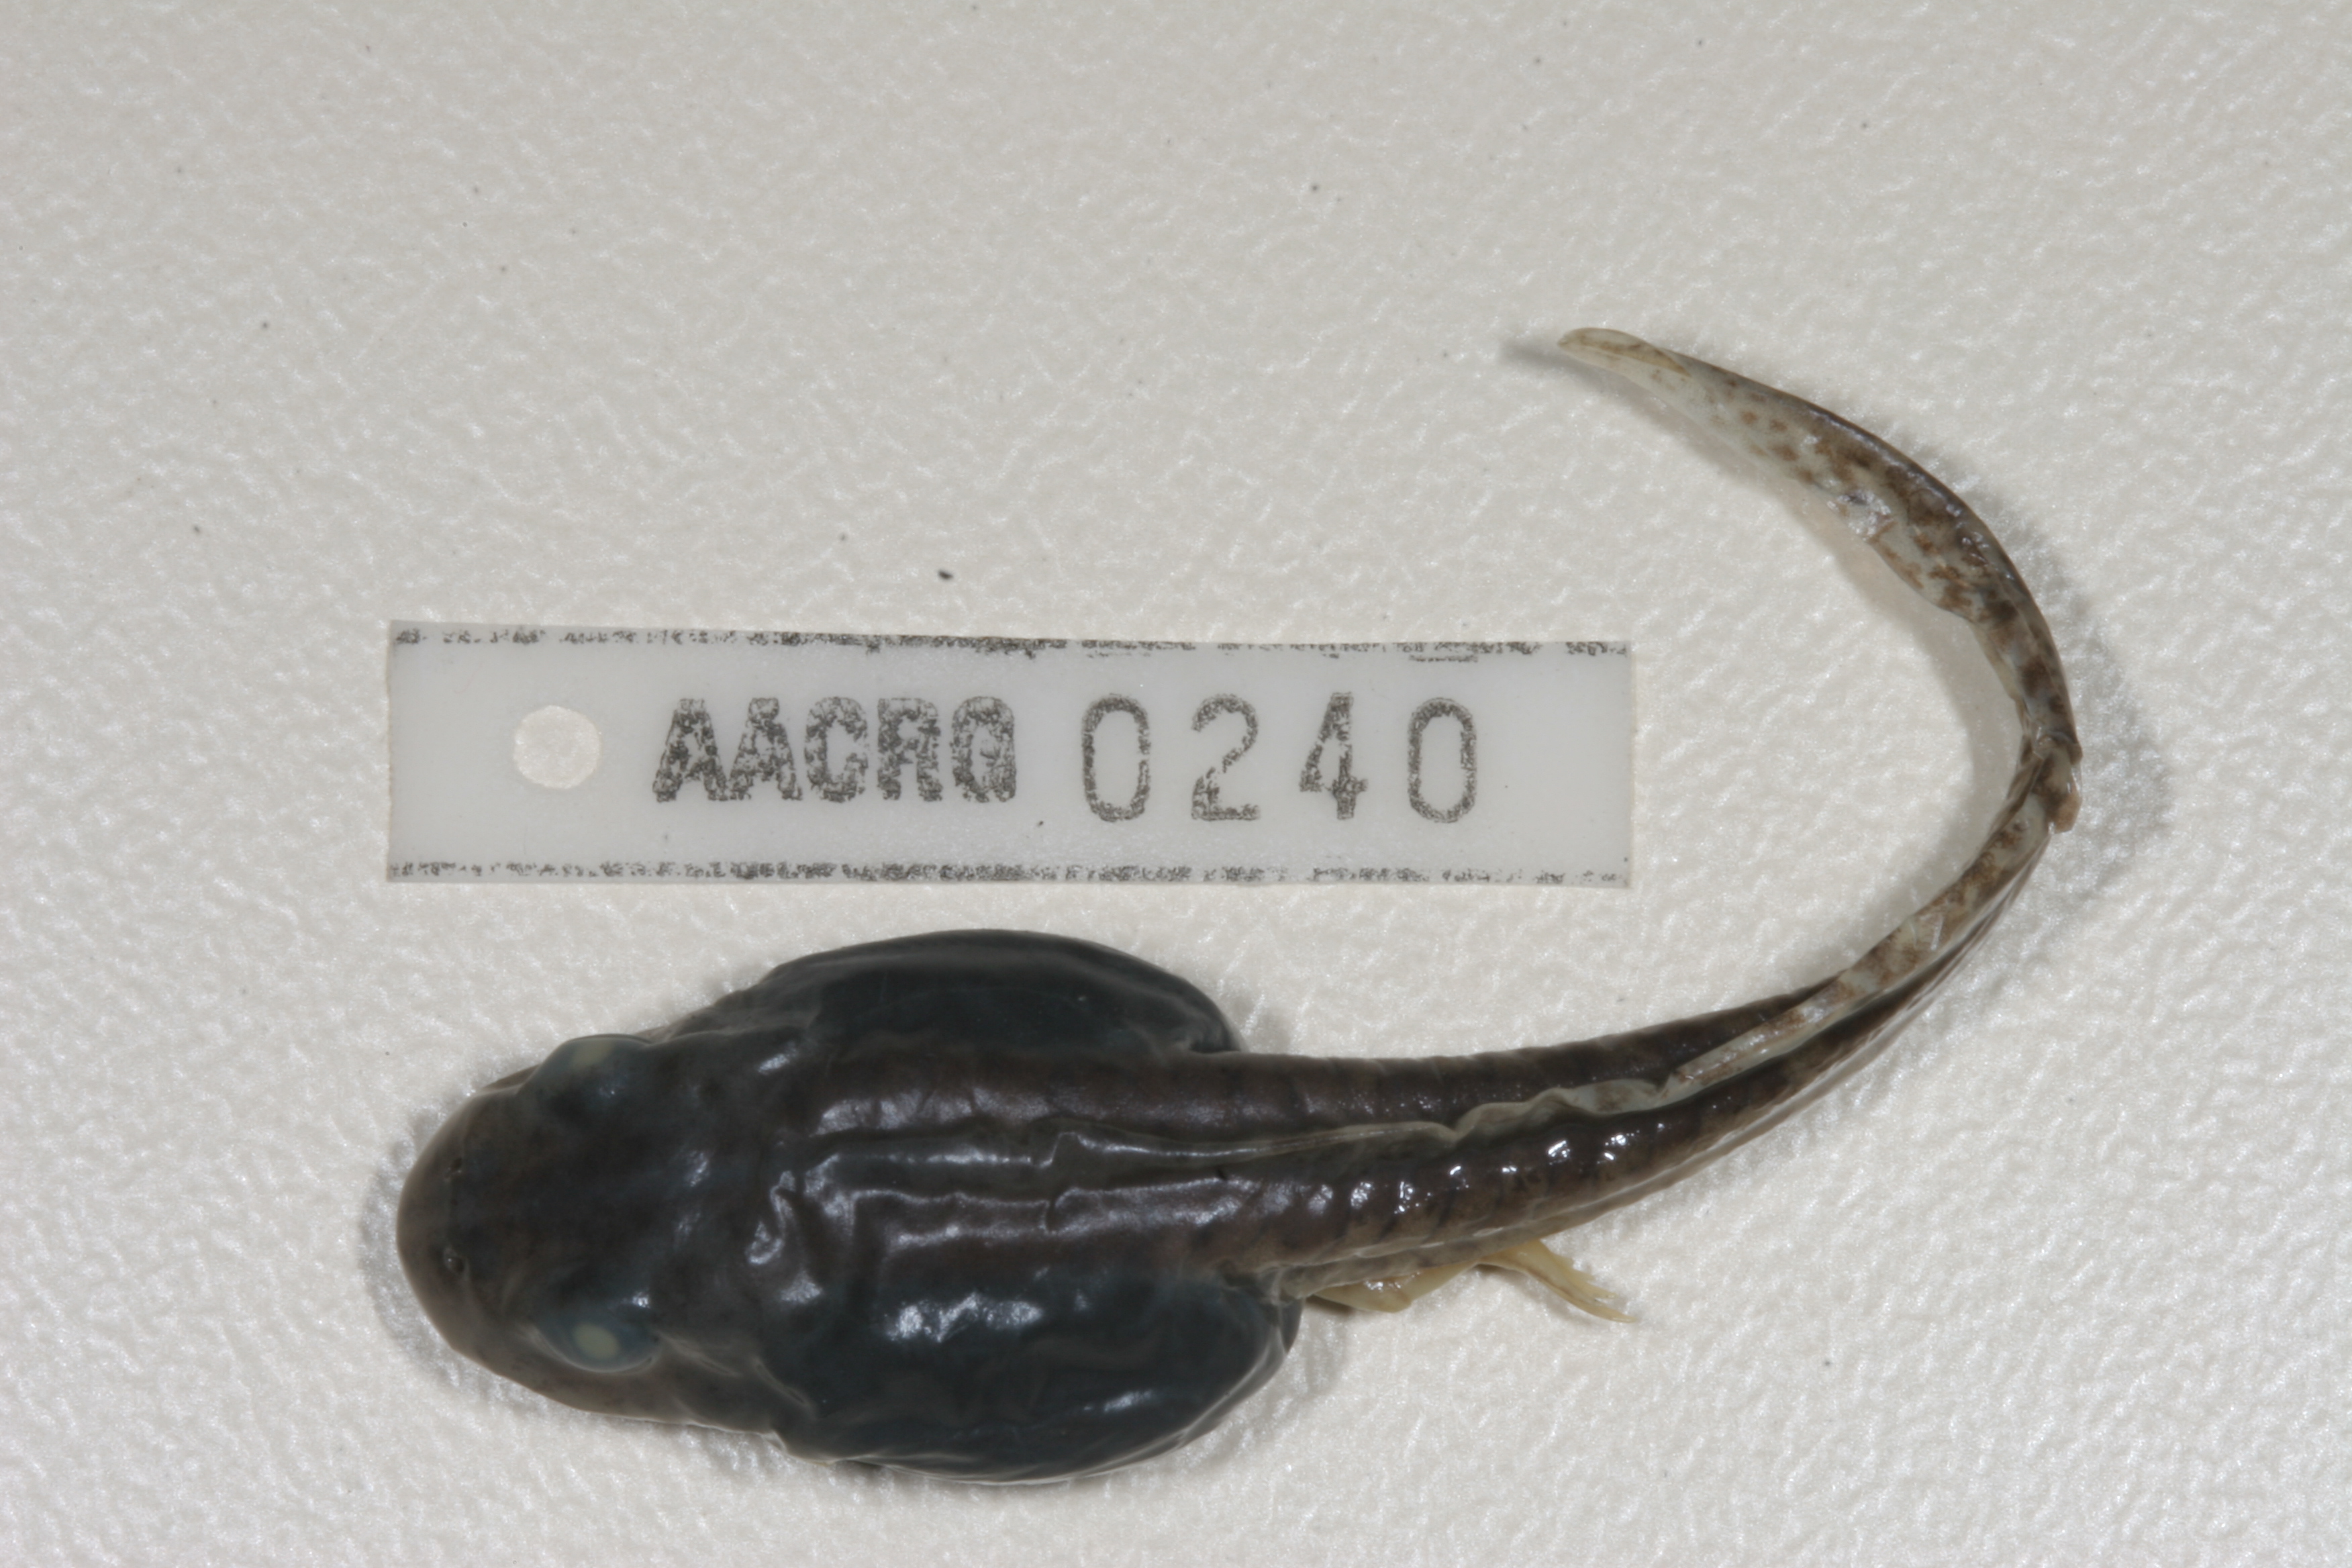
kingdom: Animalia
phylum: Chordata
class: Amphibia
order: Anura
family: Pyxicephalidae
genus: Amietia
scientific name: Amietia angolensis
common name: Dusky-throated frog
